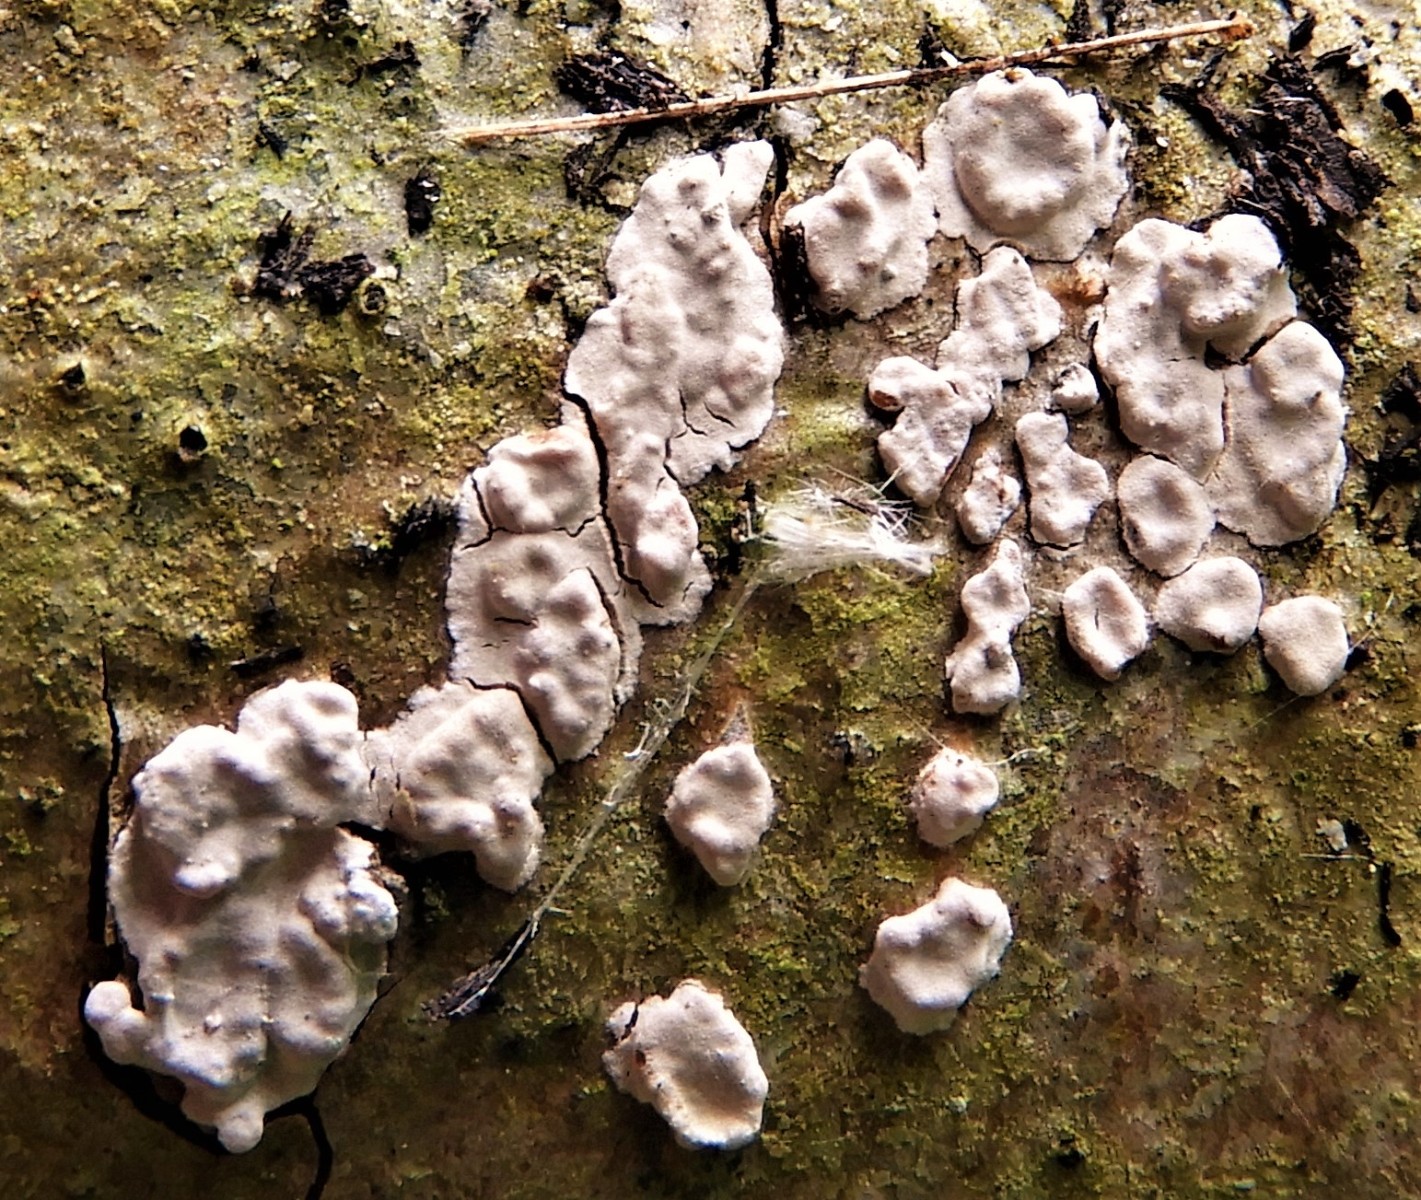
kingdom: Fungi
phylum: Basidiomycota
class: Agaricomycetes
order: Russulales
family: Peniophoraceae
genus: Peniophora
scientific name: Peniophora polygonia
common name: polygon-voksskind
